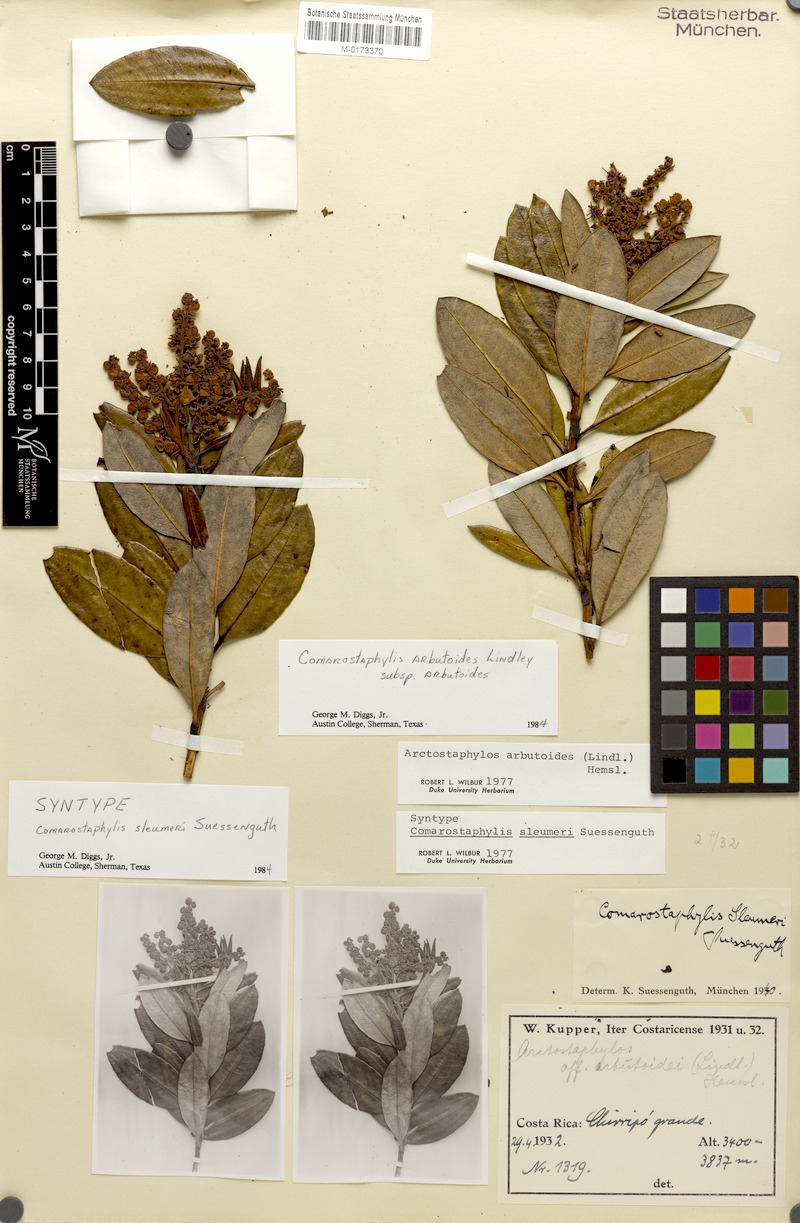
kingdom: Plantae
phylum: Tracheophyta
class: Magnoliopsida
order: Ericales
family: Ericaceae
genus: Comarostaphylis
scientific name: Comarostaphylis arbutoides
